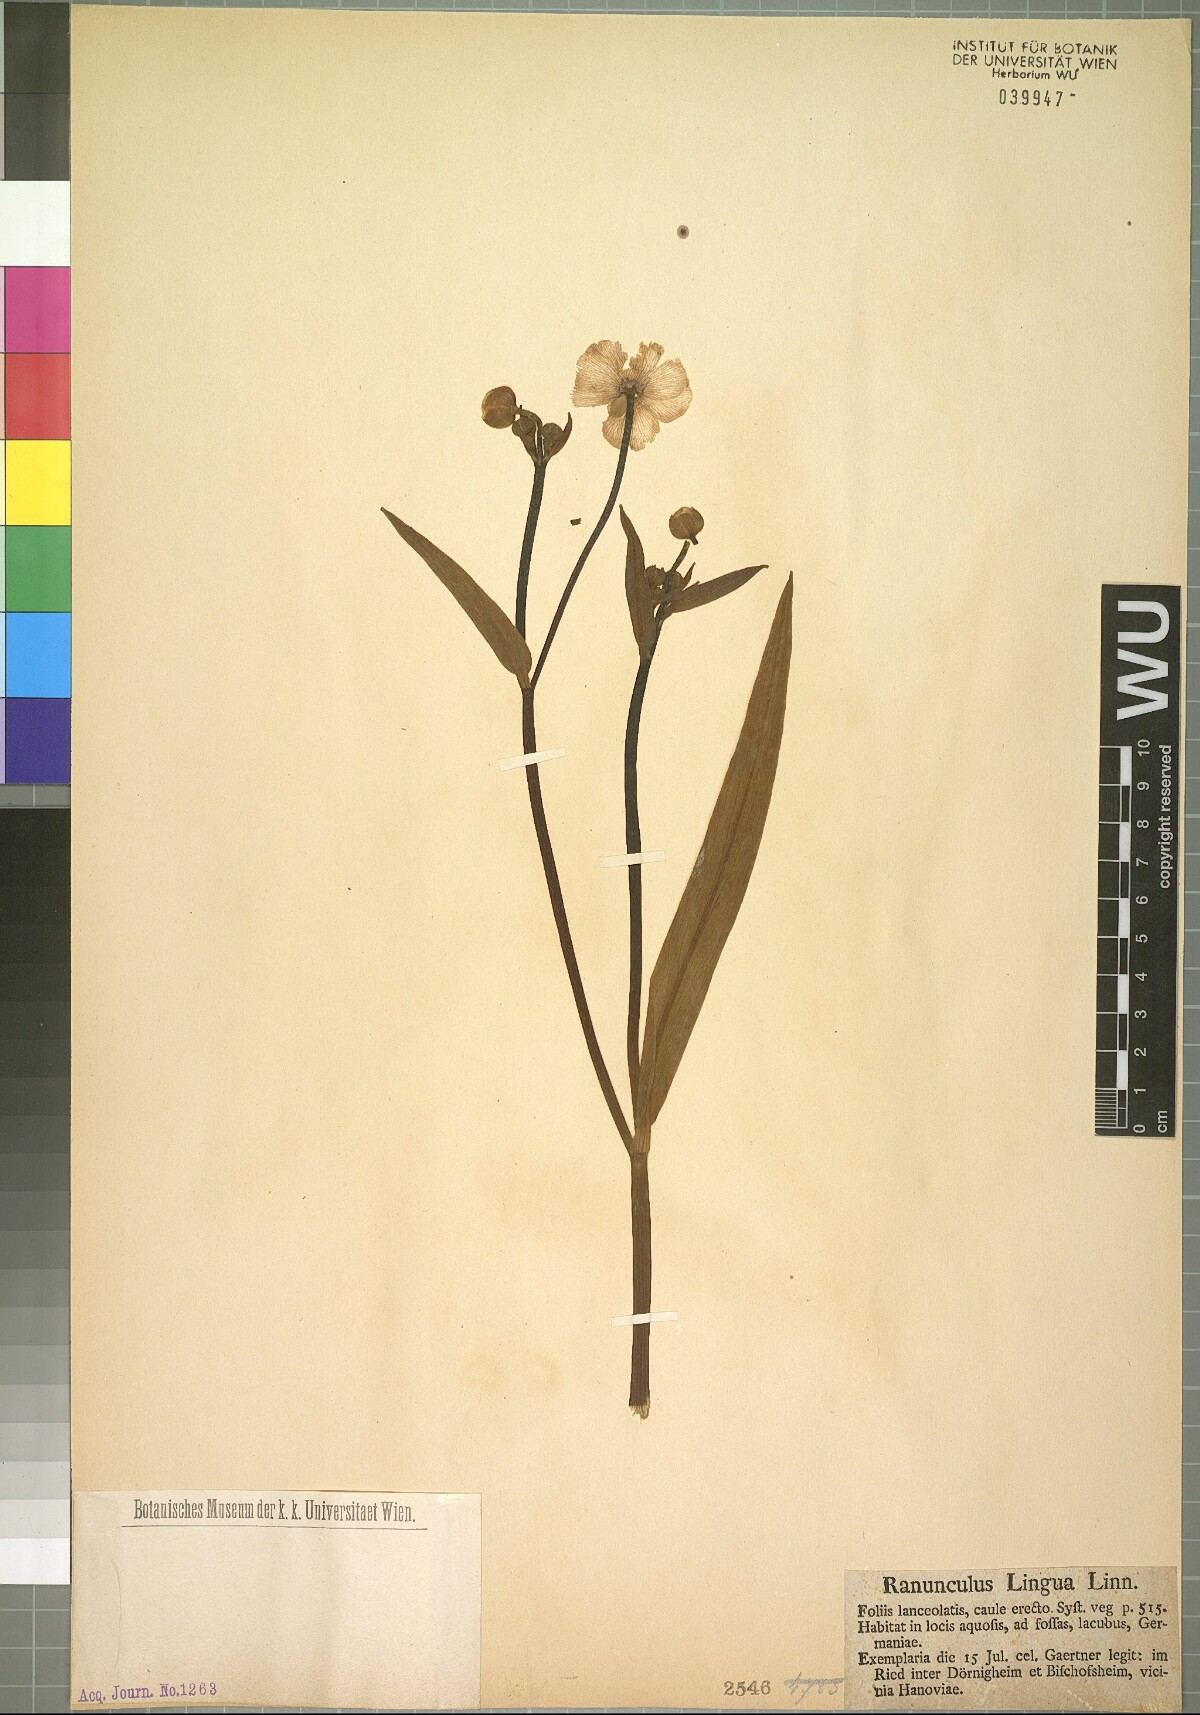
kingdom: Plantae
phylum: Tracheophyta
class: Magnoliopsida
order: Ranunculales
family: Ranunculaceae
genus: Ranunculus
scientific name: Ranunculus lingua
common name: Greater spearwort
